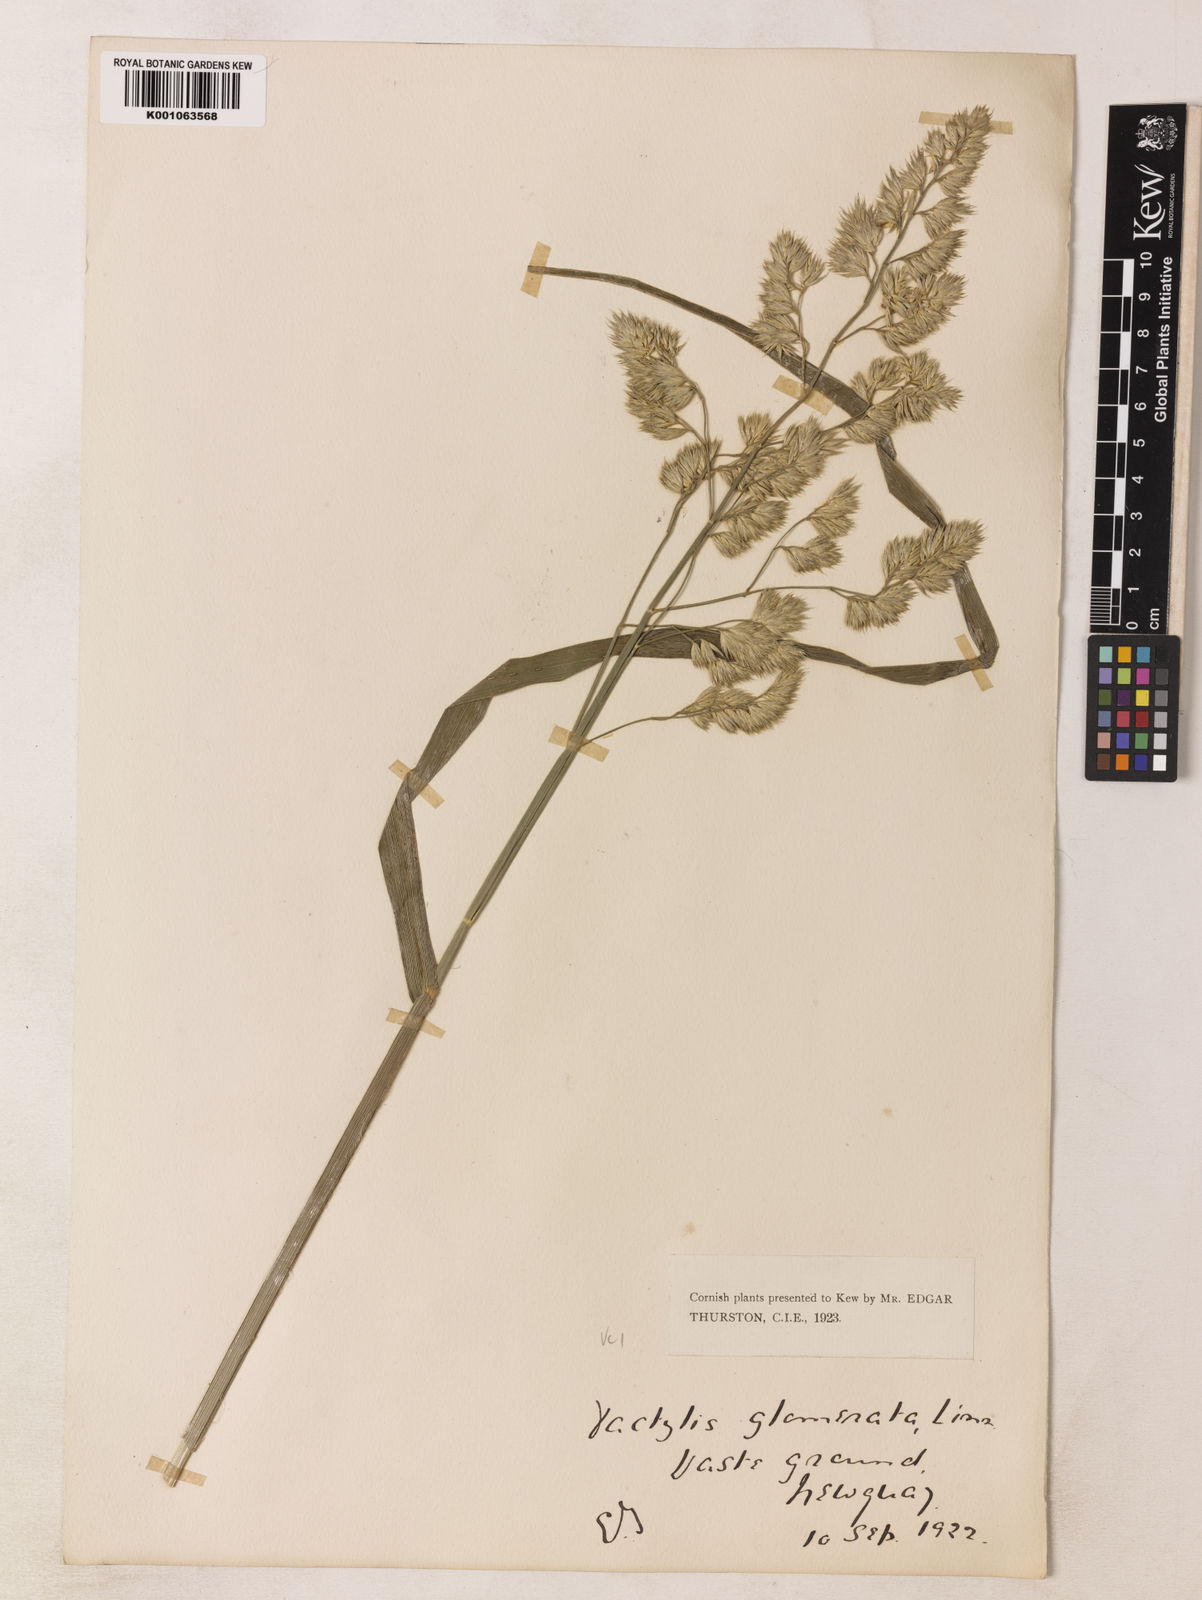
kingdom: Plantae
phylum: Tracheophyta
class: Liliopsida
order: Poales
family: Poaceae
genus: Dactylis
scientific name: Dactylis glomerata
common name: Orchardgrass
